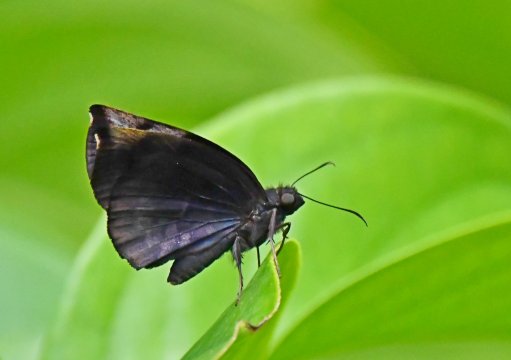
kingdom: Animalia
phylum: Arthropoda
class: Insecta
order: Lepidoptera
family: Hesperiidae
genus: Achlyodes
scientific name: Achlyodes thraso
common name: Southern Sicklewing
